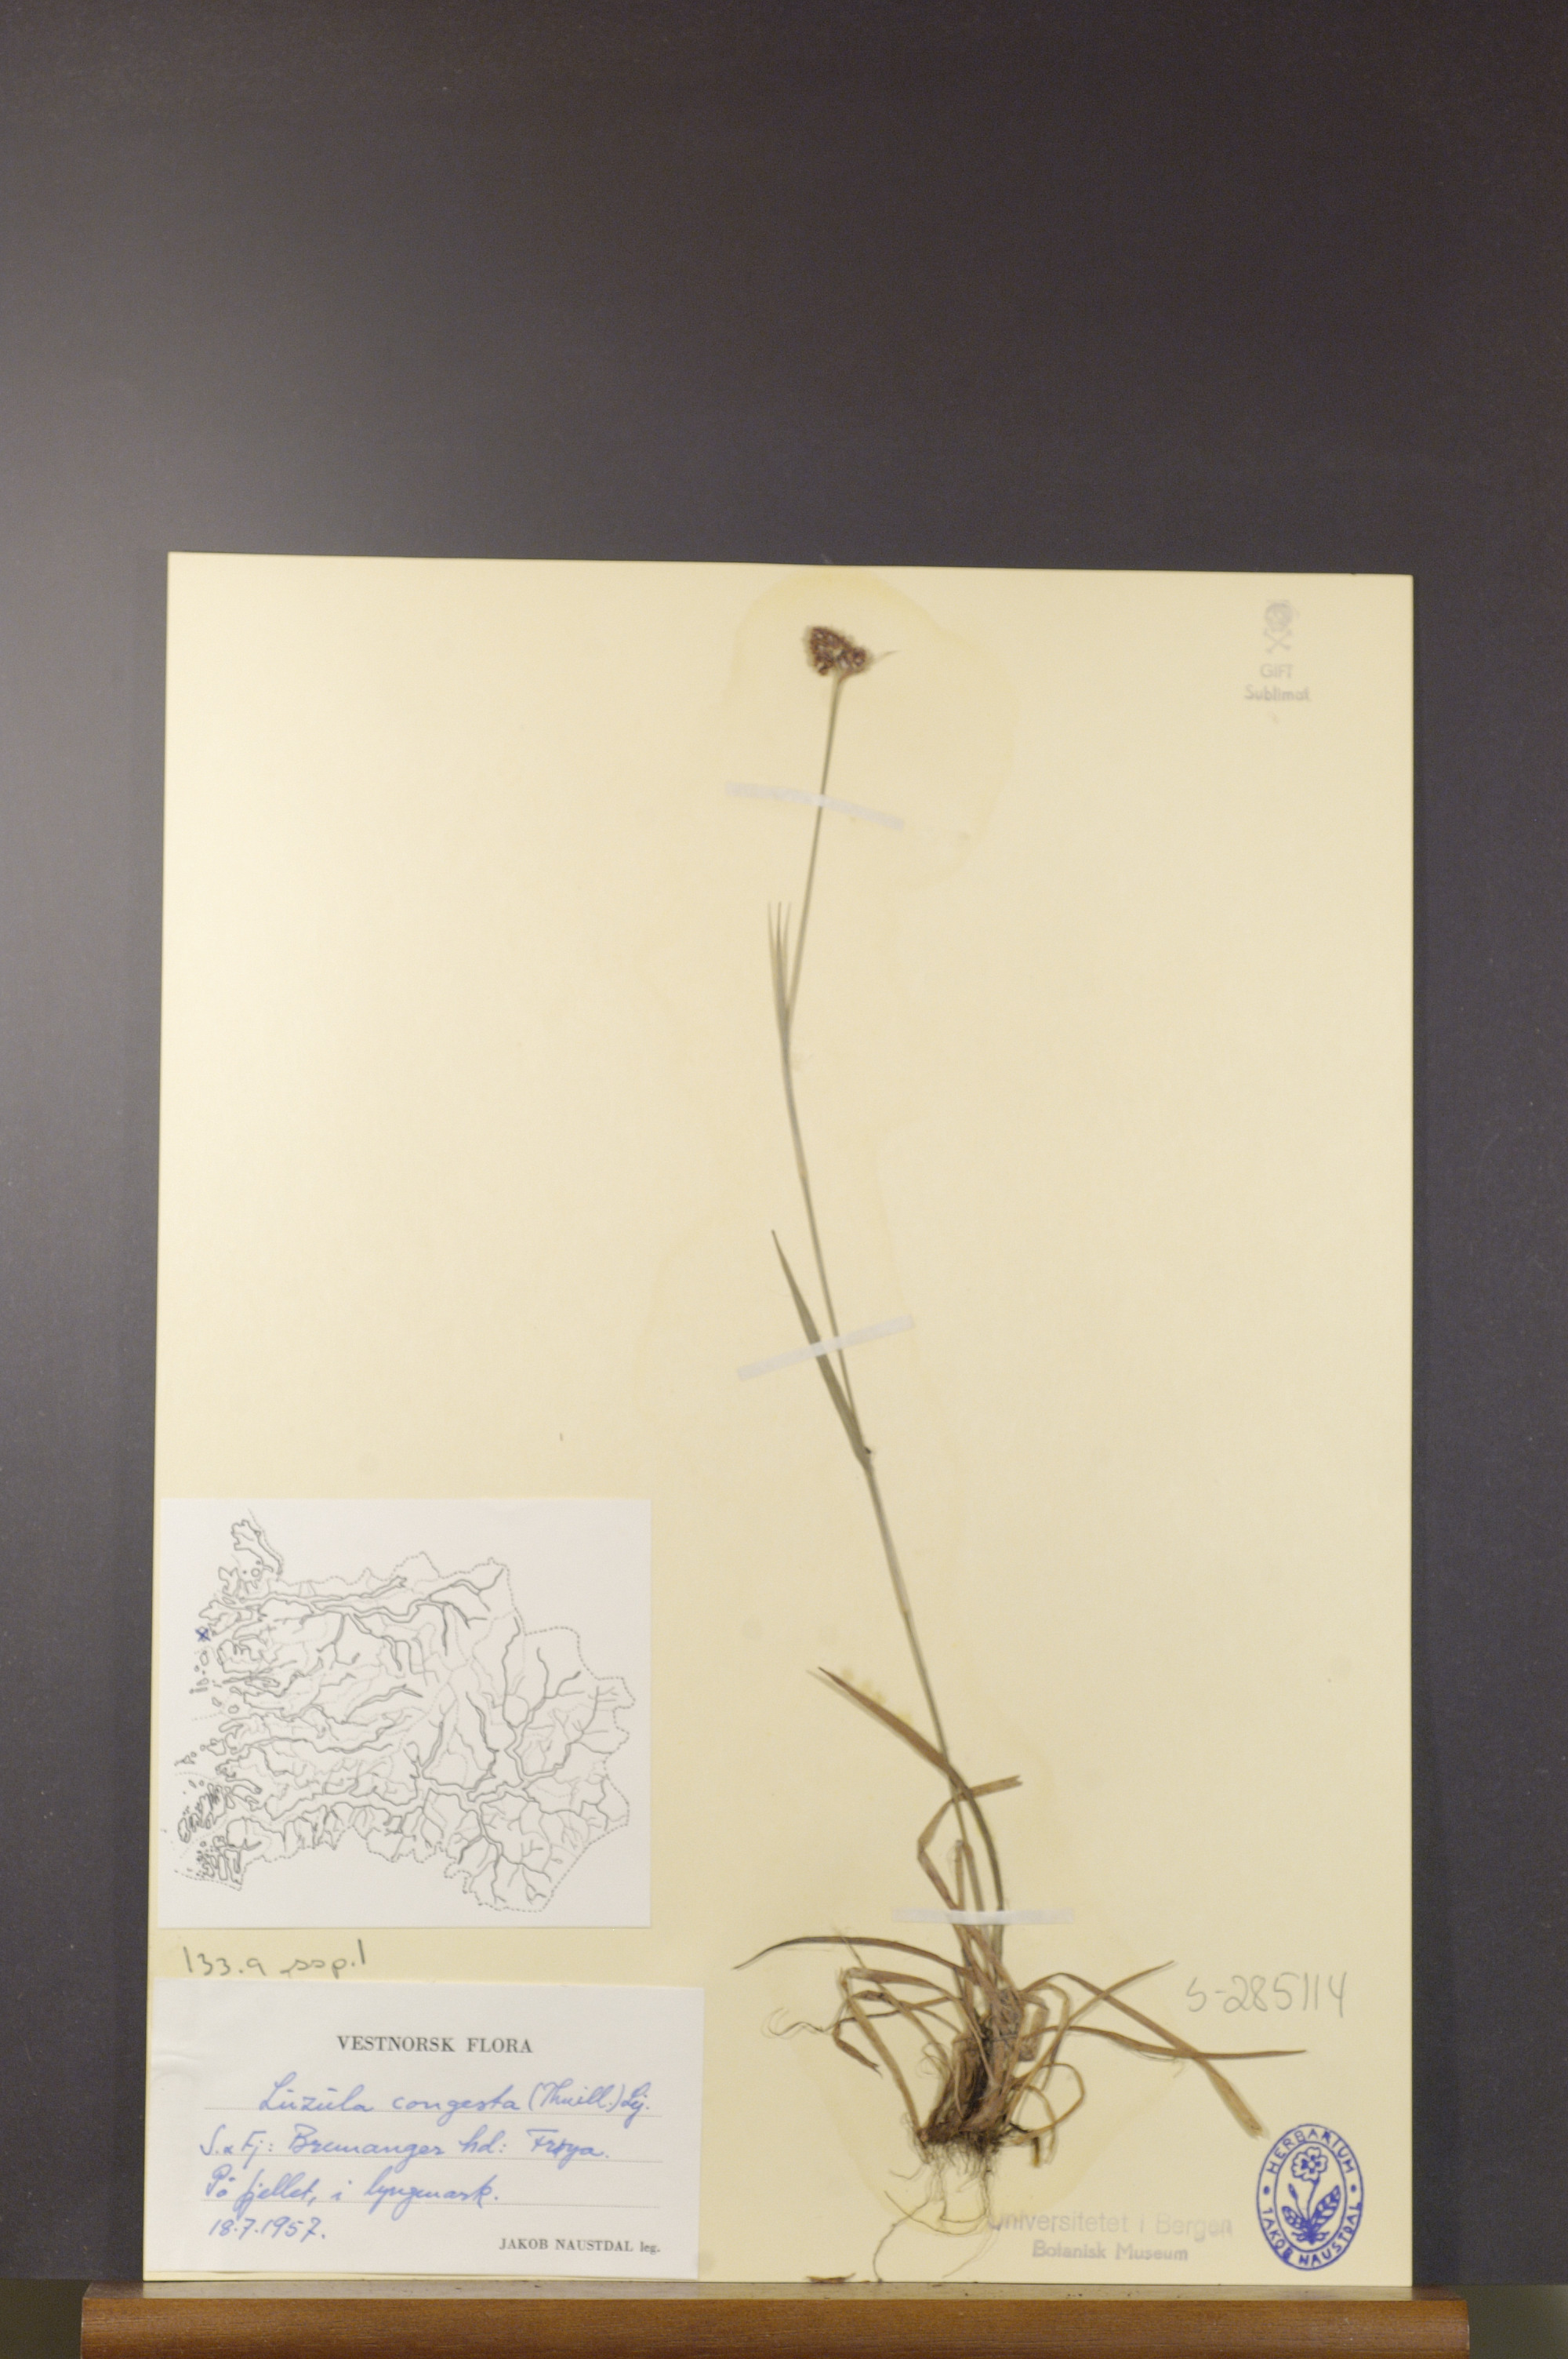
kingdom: Plantae
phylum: Tracheophyta
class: Liliopsida
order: Poales
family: Juncaceae
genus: Luzula
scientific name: Luzula congesta
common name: Heath woodrush
